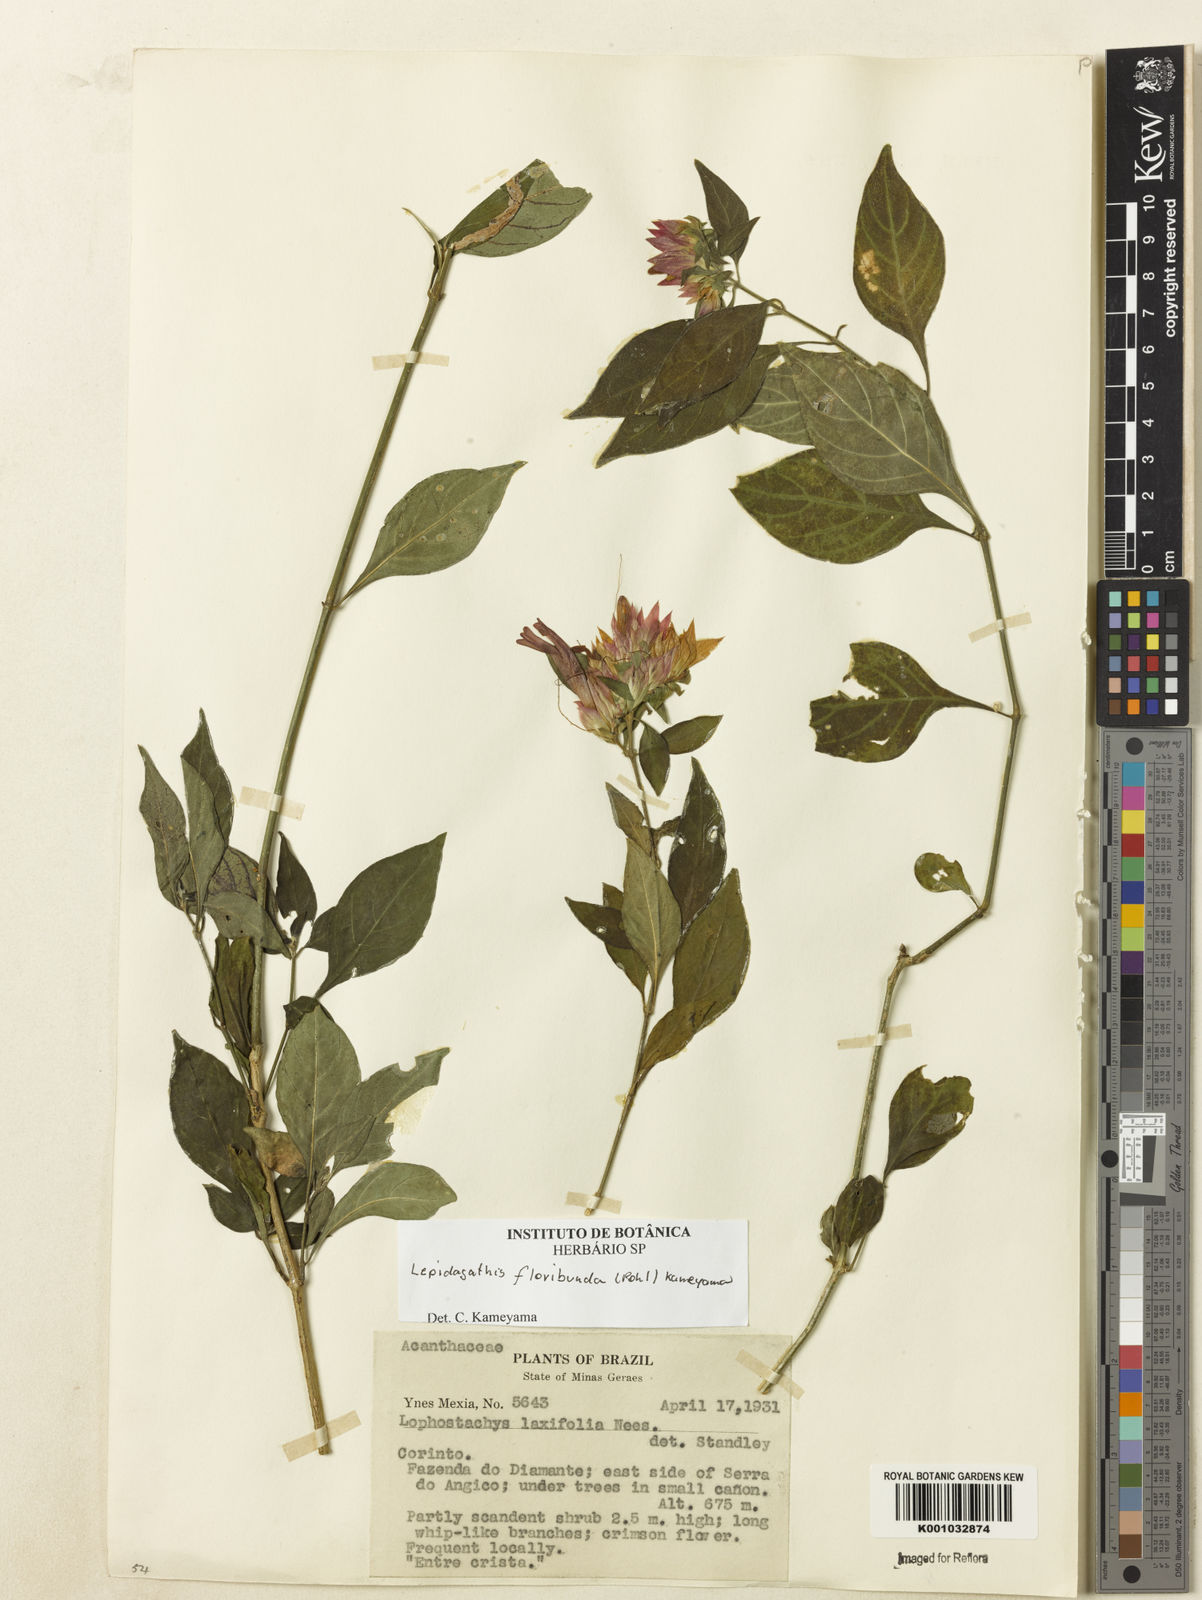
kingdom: Plantae
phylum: Tracheophyta
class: Magnoliopsida
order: Lamiales
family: Acanthaceae
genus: Lepidagathis
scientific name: Lepidagathis floribunda
